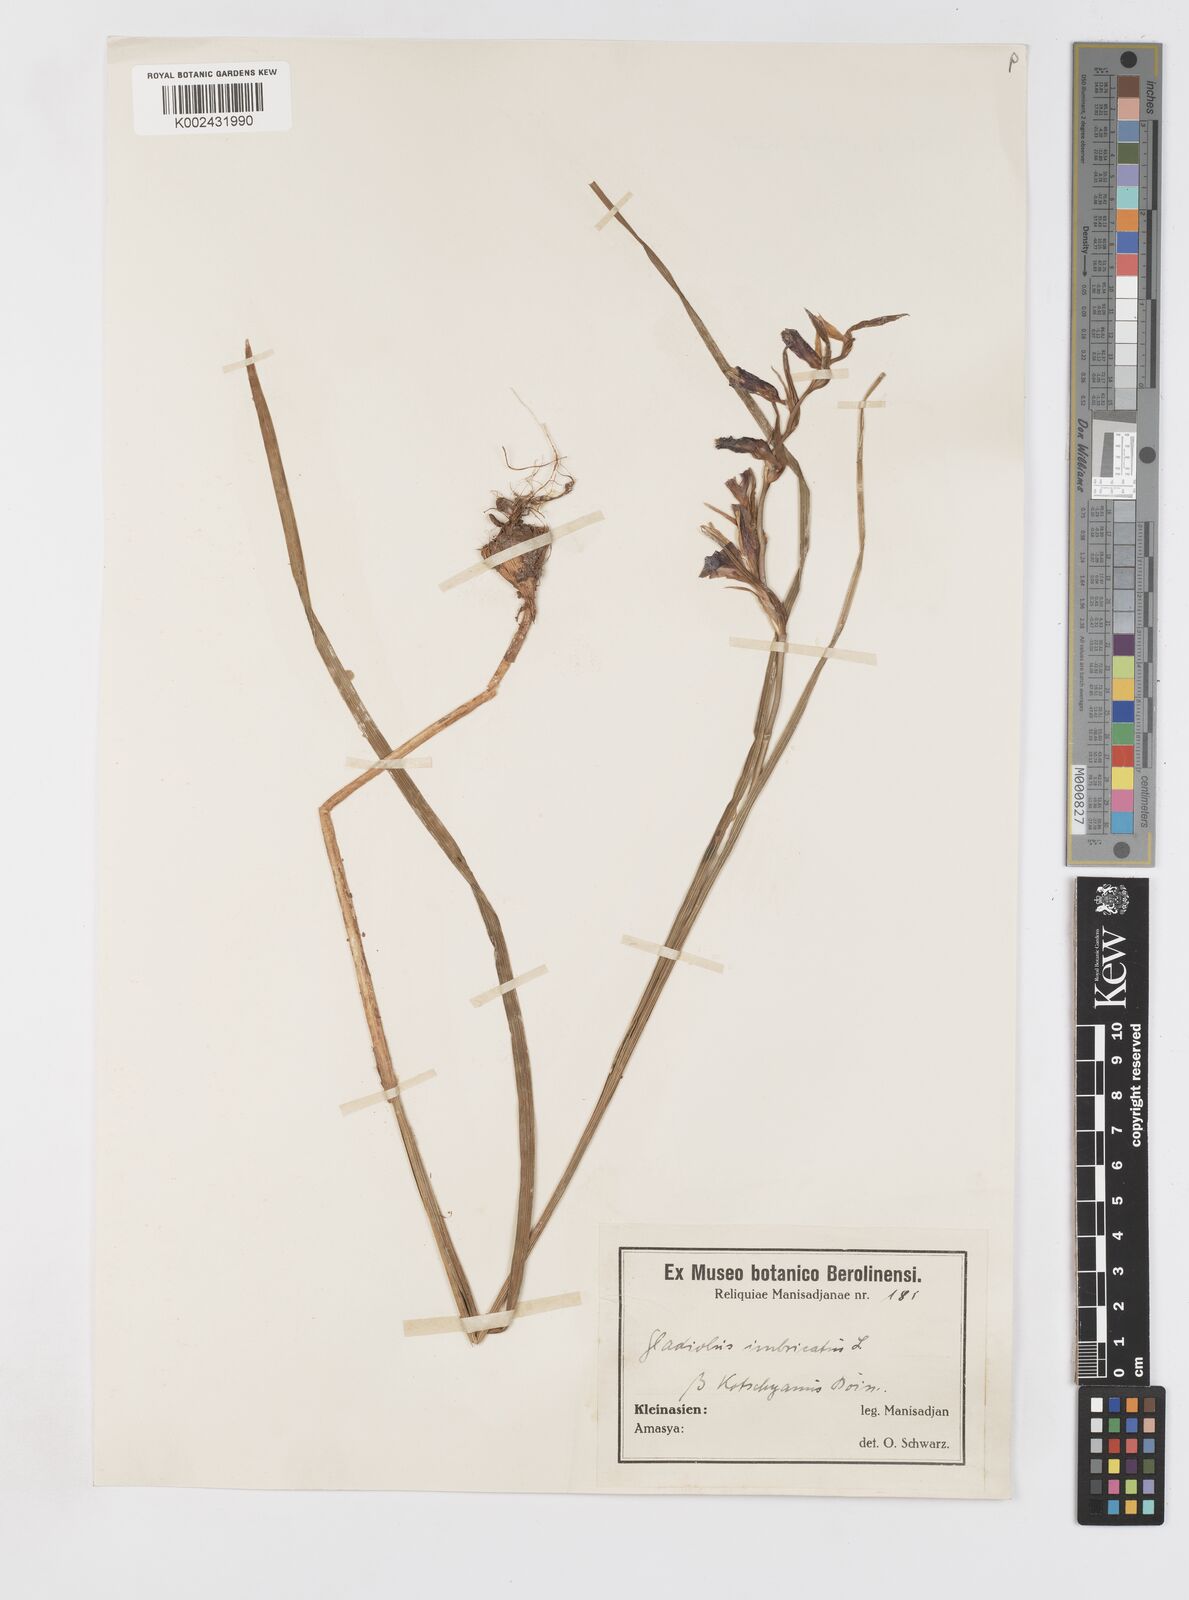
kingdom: Plantae
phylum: Tracheophyta
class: Liliopsida
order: Asparagales
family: Iridaceae
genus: Gladiolus
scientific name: Gladiolus illyricus
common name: Wild gladiolus
